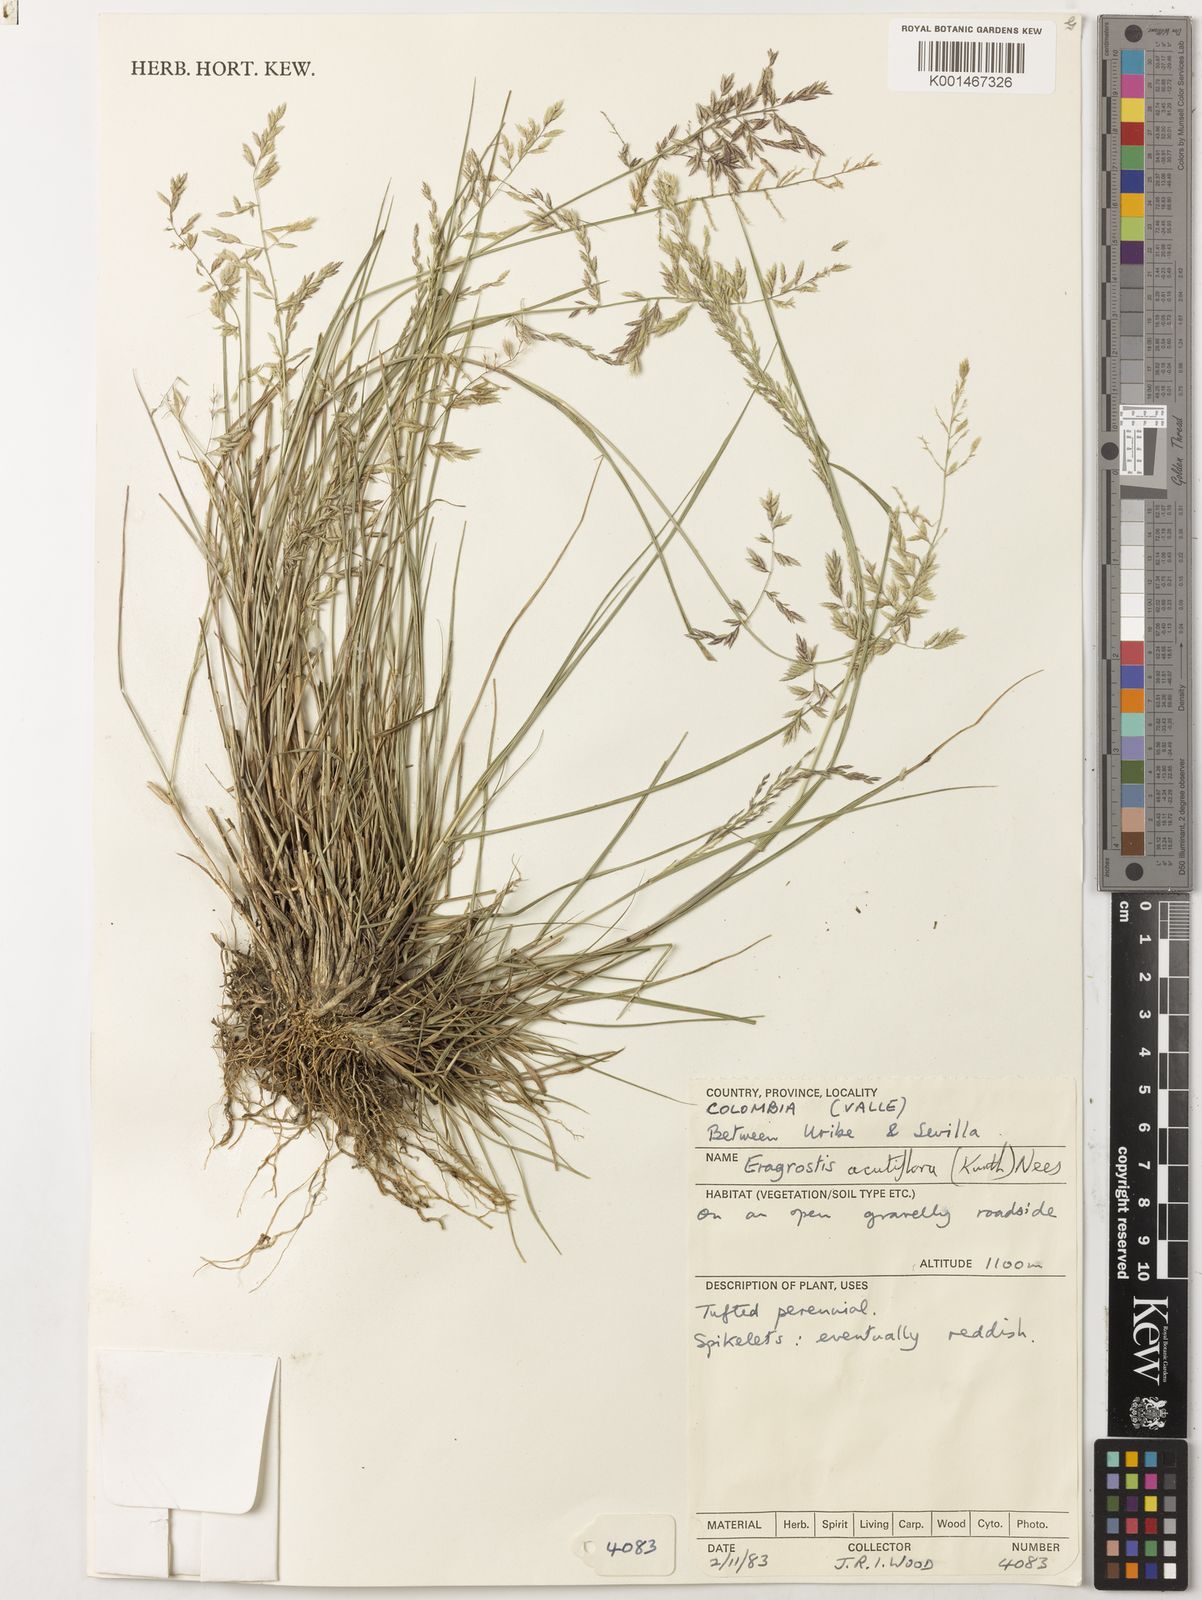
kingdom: Plantae
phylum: Tracheophyta
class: Liliopsida
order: Poales
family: Poaceae
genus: Eragrostis
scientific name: Eragrostis acutiflora
